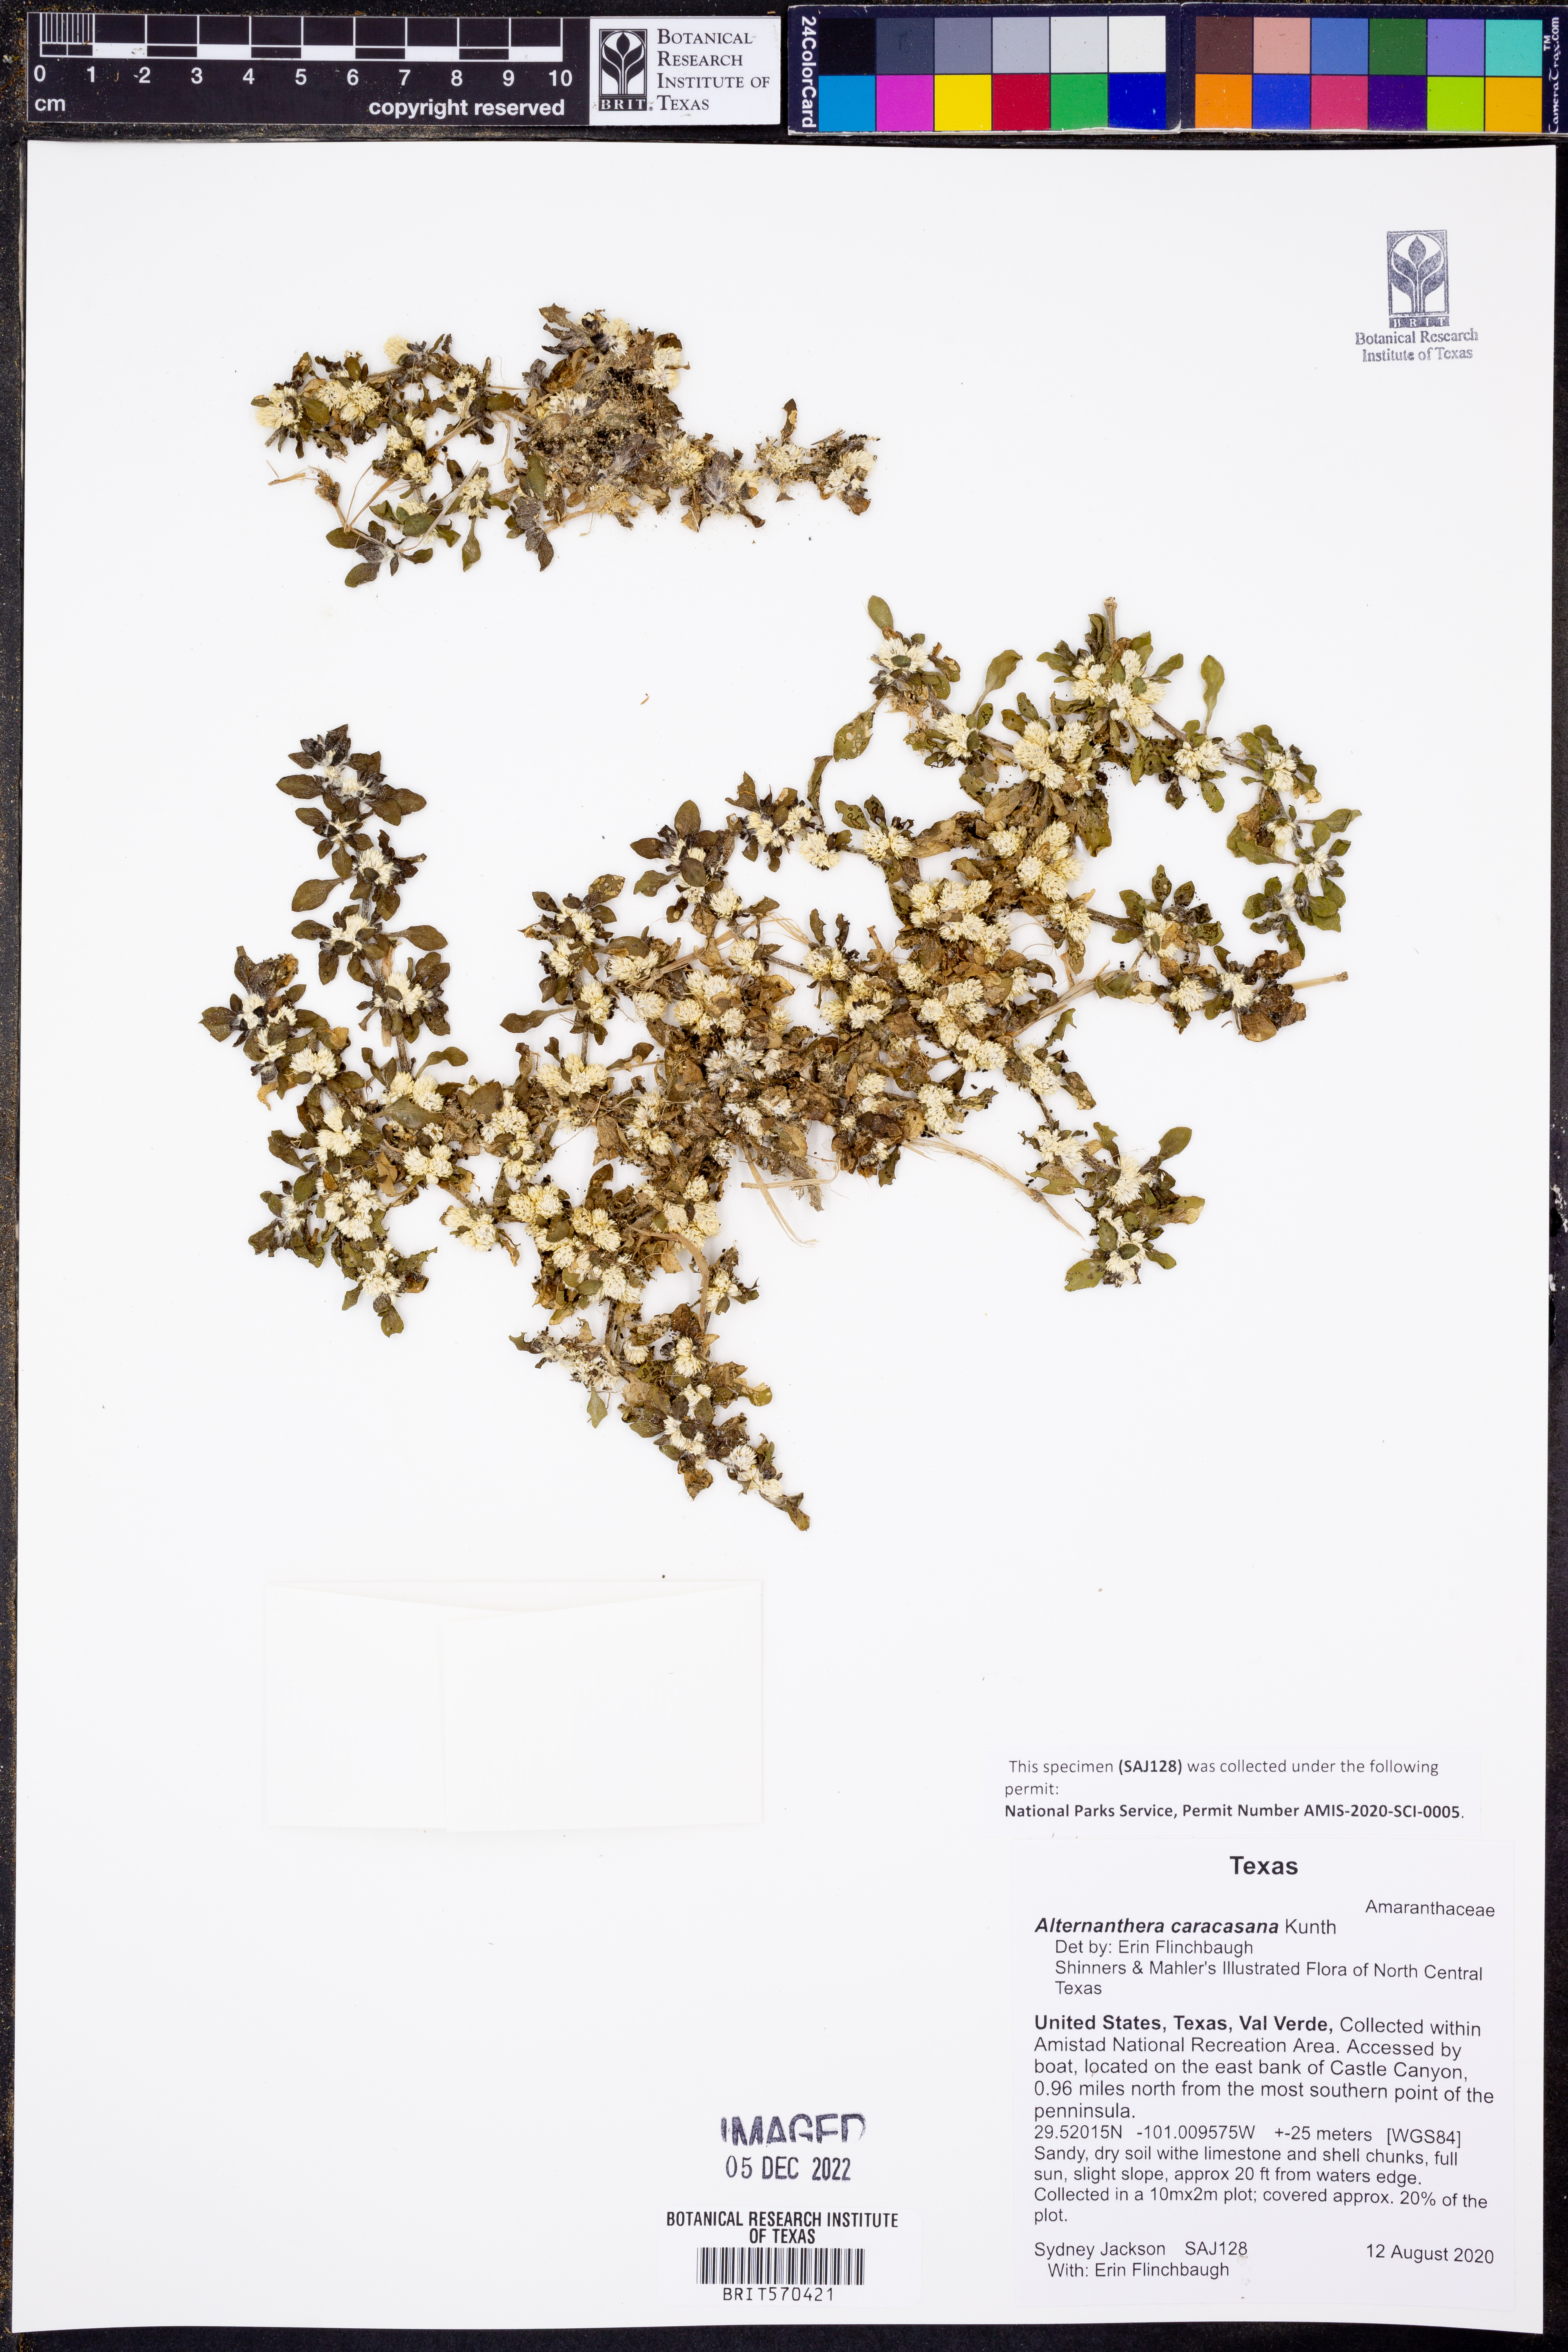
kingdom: Plantae
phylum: Tracheophyta
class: Magnoliopsida
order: Caryophyllales
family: Amaranthaceae
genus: Alternanthera
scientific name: Alternanthera caracasana
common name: Washerwoman
